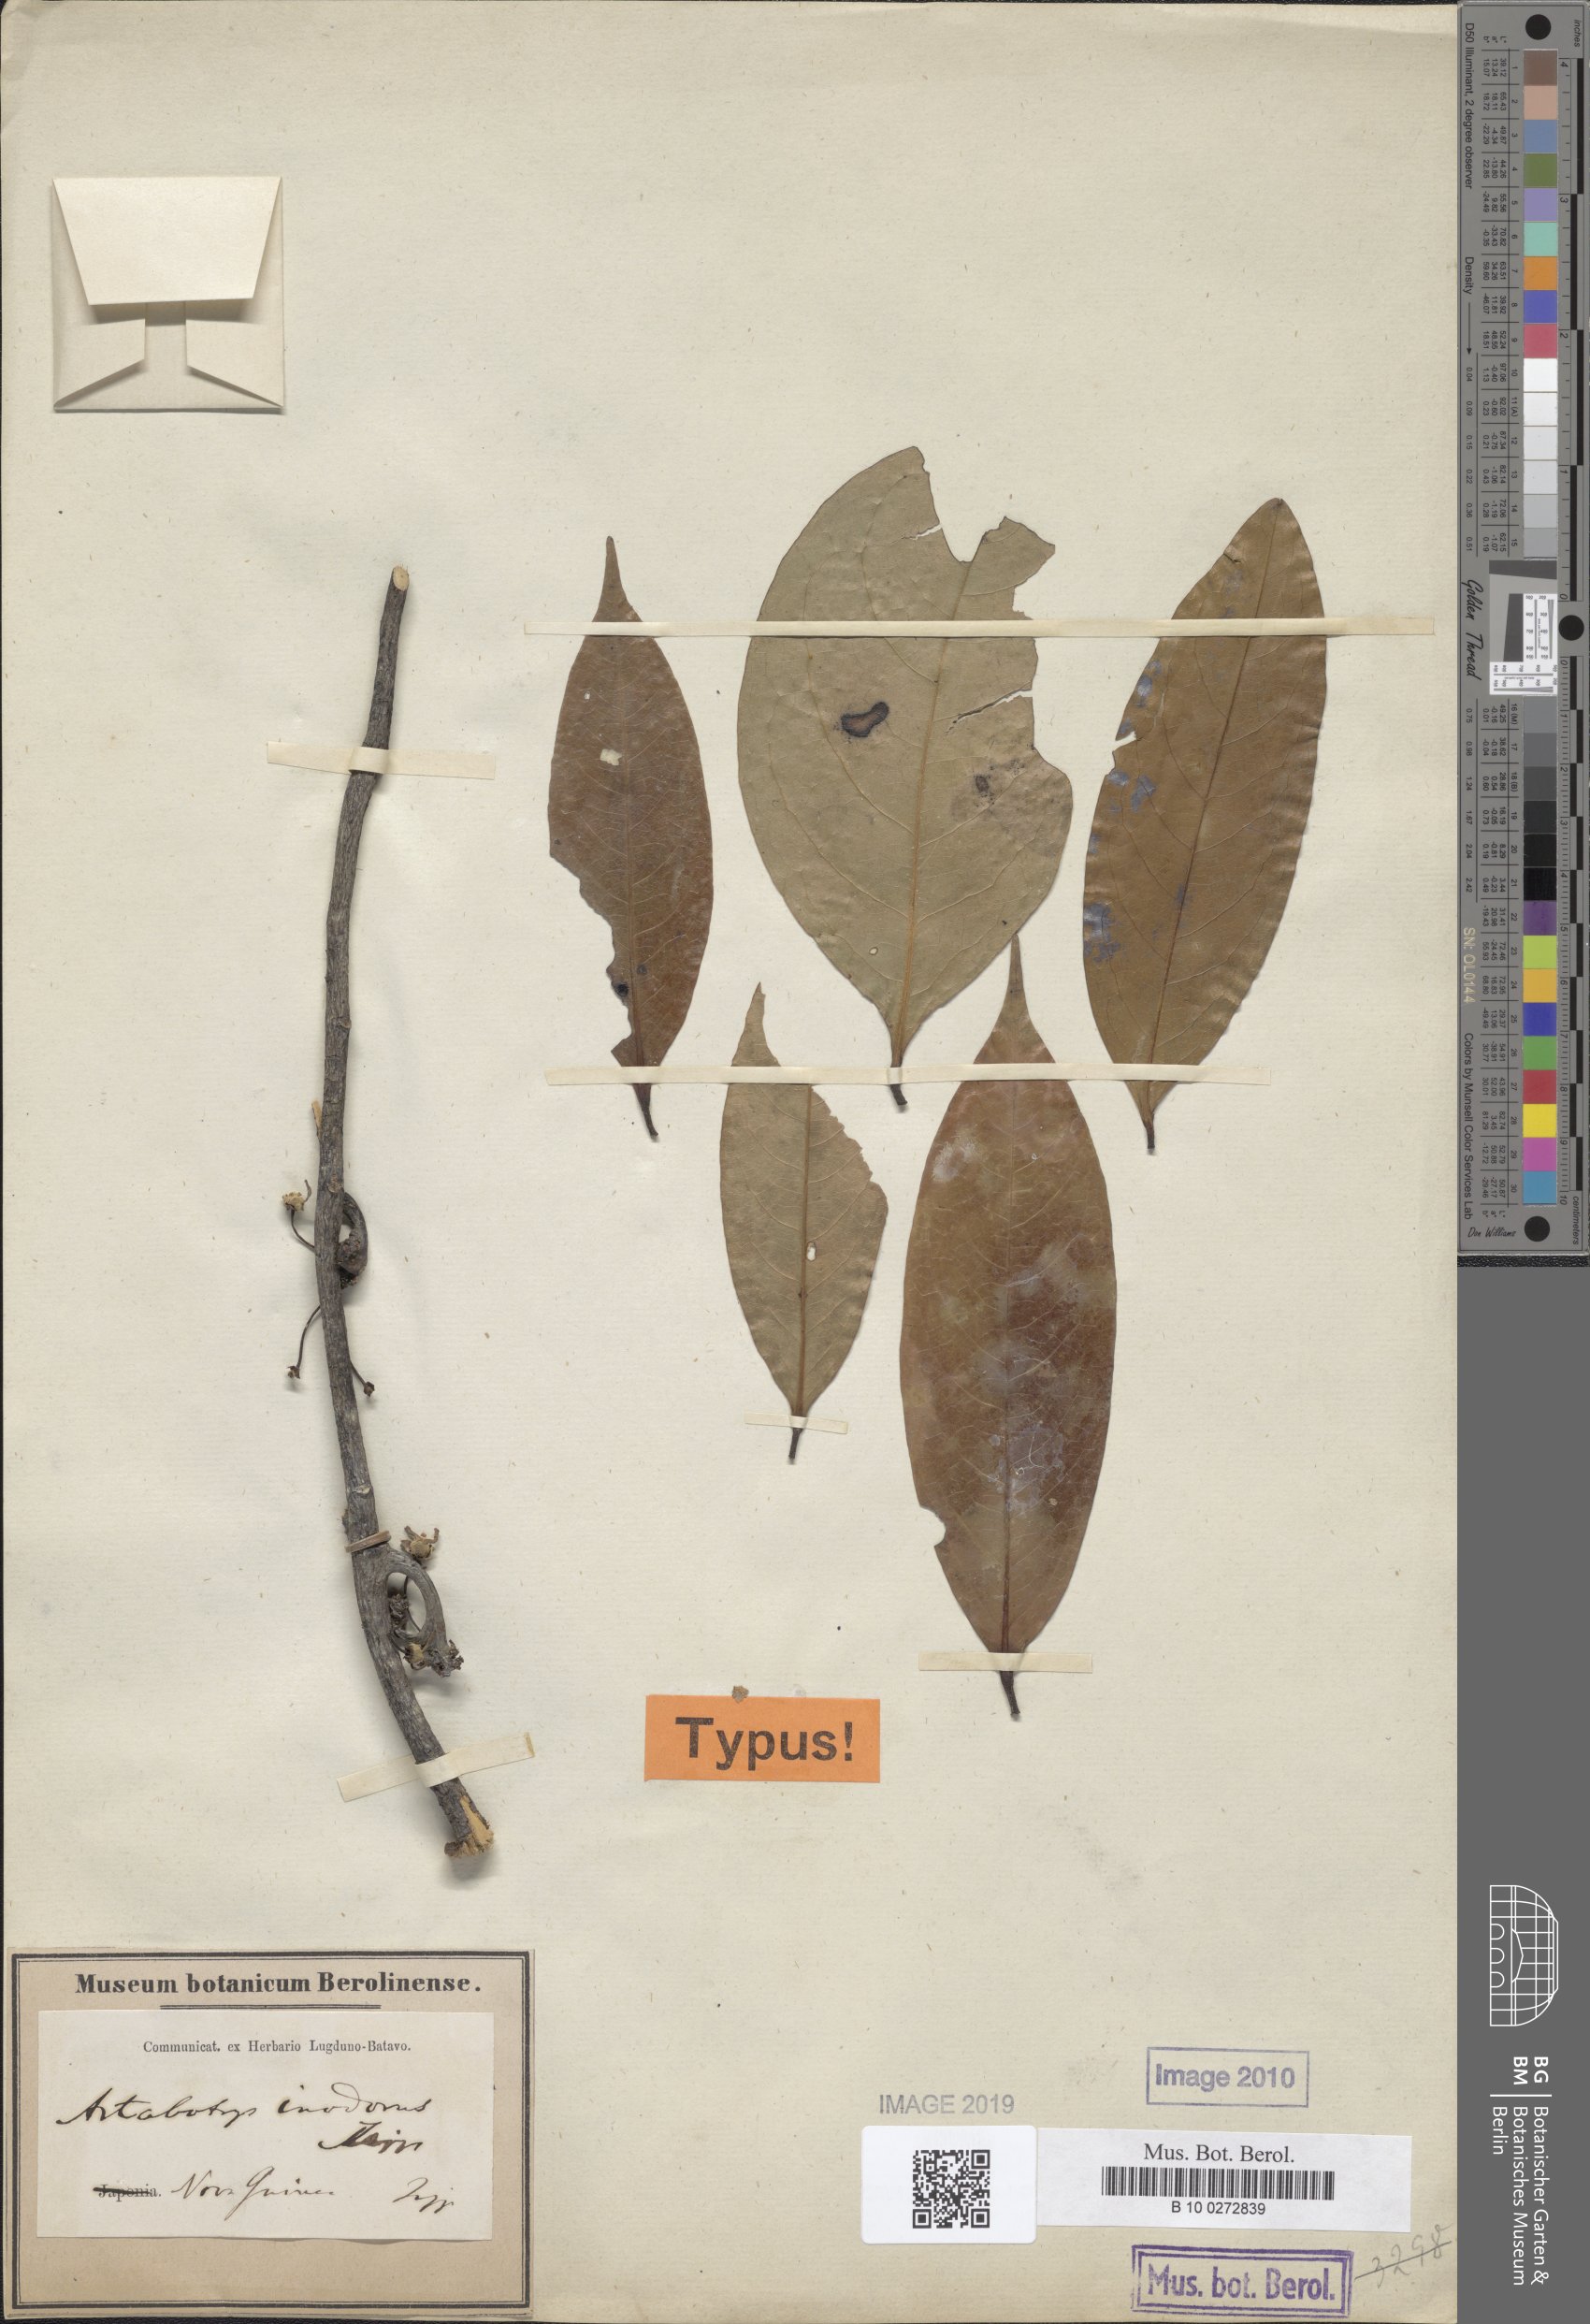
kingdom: Plantae
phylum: Tracheophyta
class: Magnoliopsida
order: Magnoliales
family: Annonaceae
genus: Artabotrys
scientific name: Artabotrys inodorus
